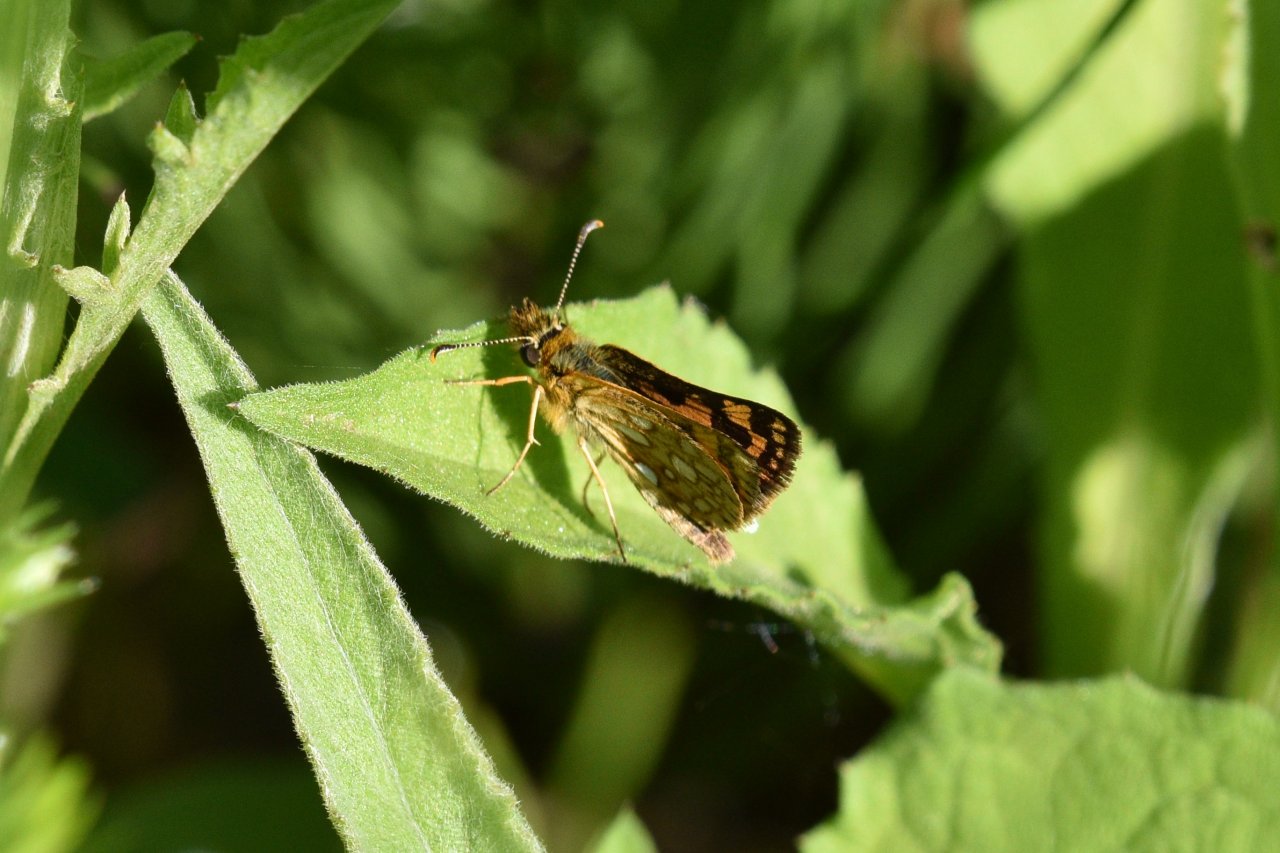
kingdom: Animalia
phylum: Arthropoda
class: Insecta
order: Lepidoptera
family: Hesperiidae
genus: Carterocephalus
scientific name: Carterocephalus palaemon
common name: Chequered Skipper
